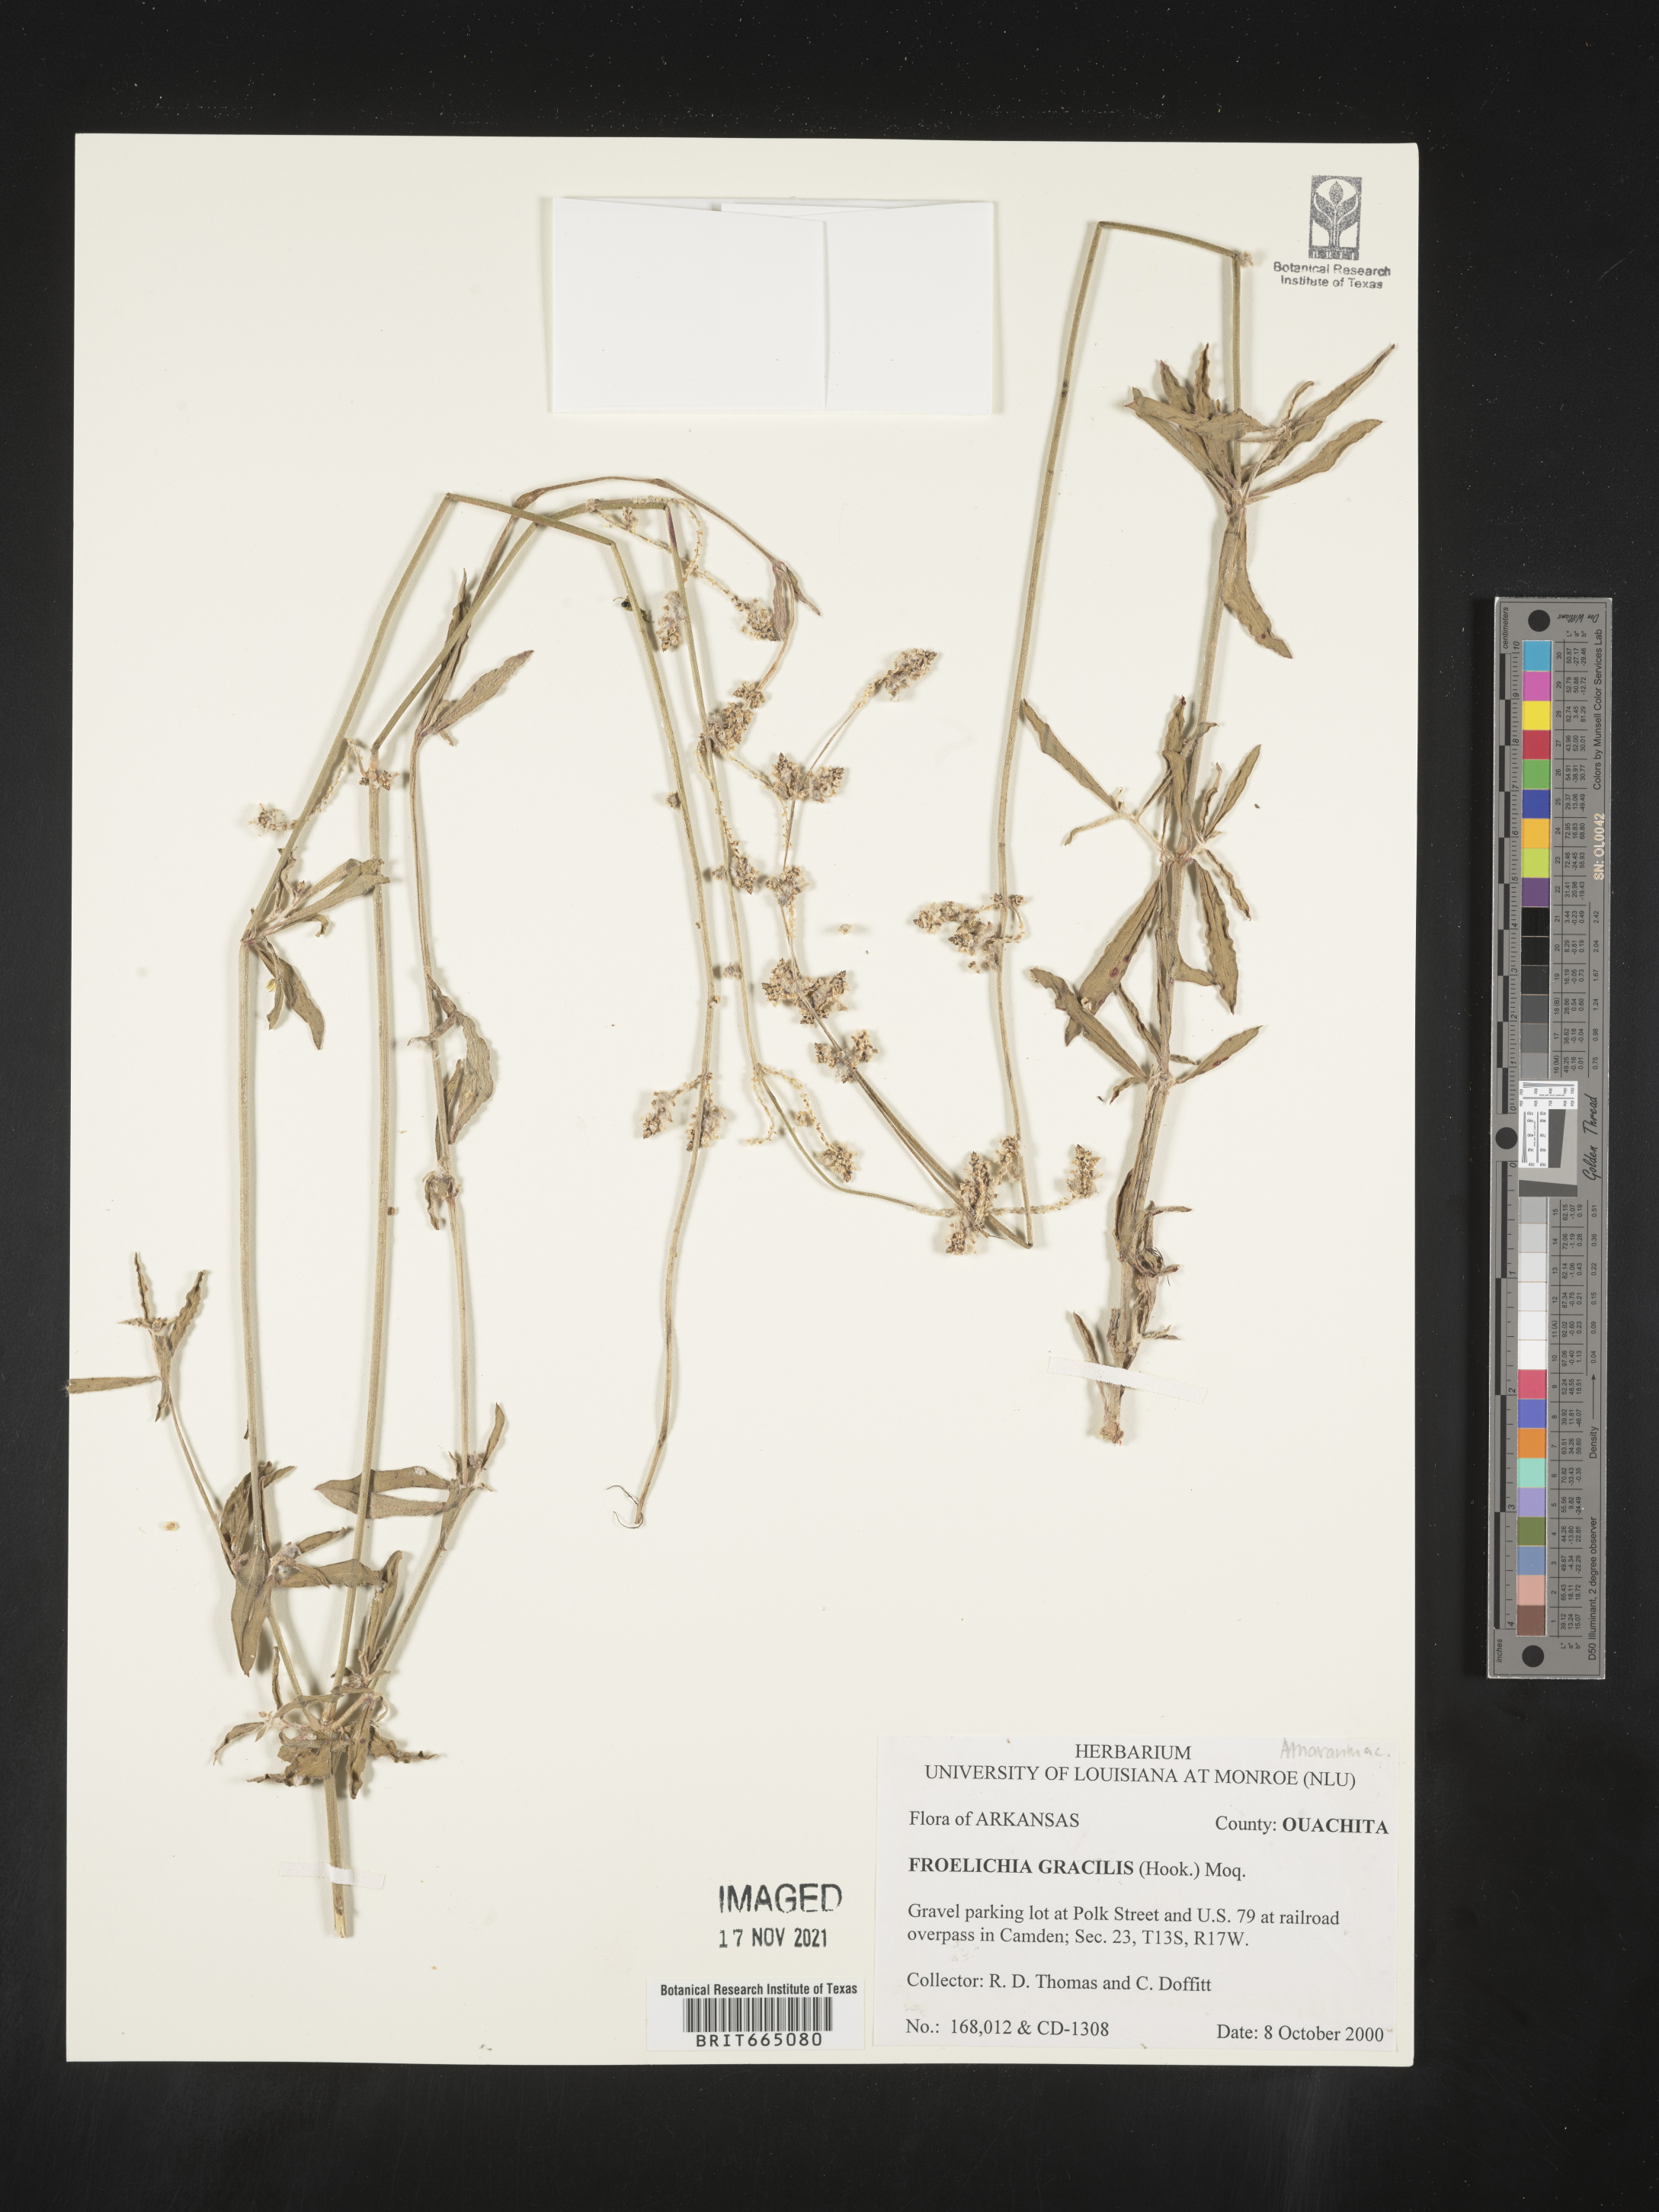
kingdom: Plantae
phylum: Tracheophyta
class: Magnoliopsida
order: Caryophyllales
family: Amaranthaceae
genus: Froelichia
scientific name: Froelichia gracilis
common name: Slender cottonweed
